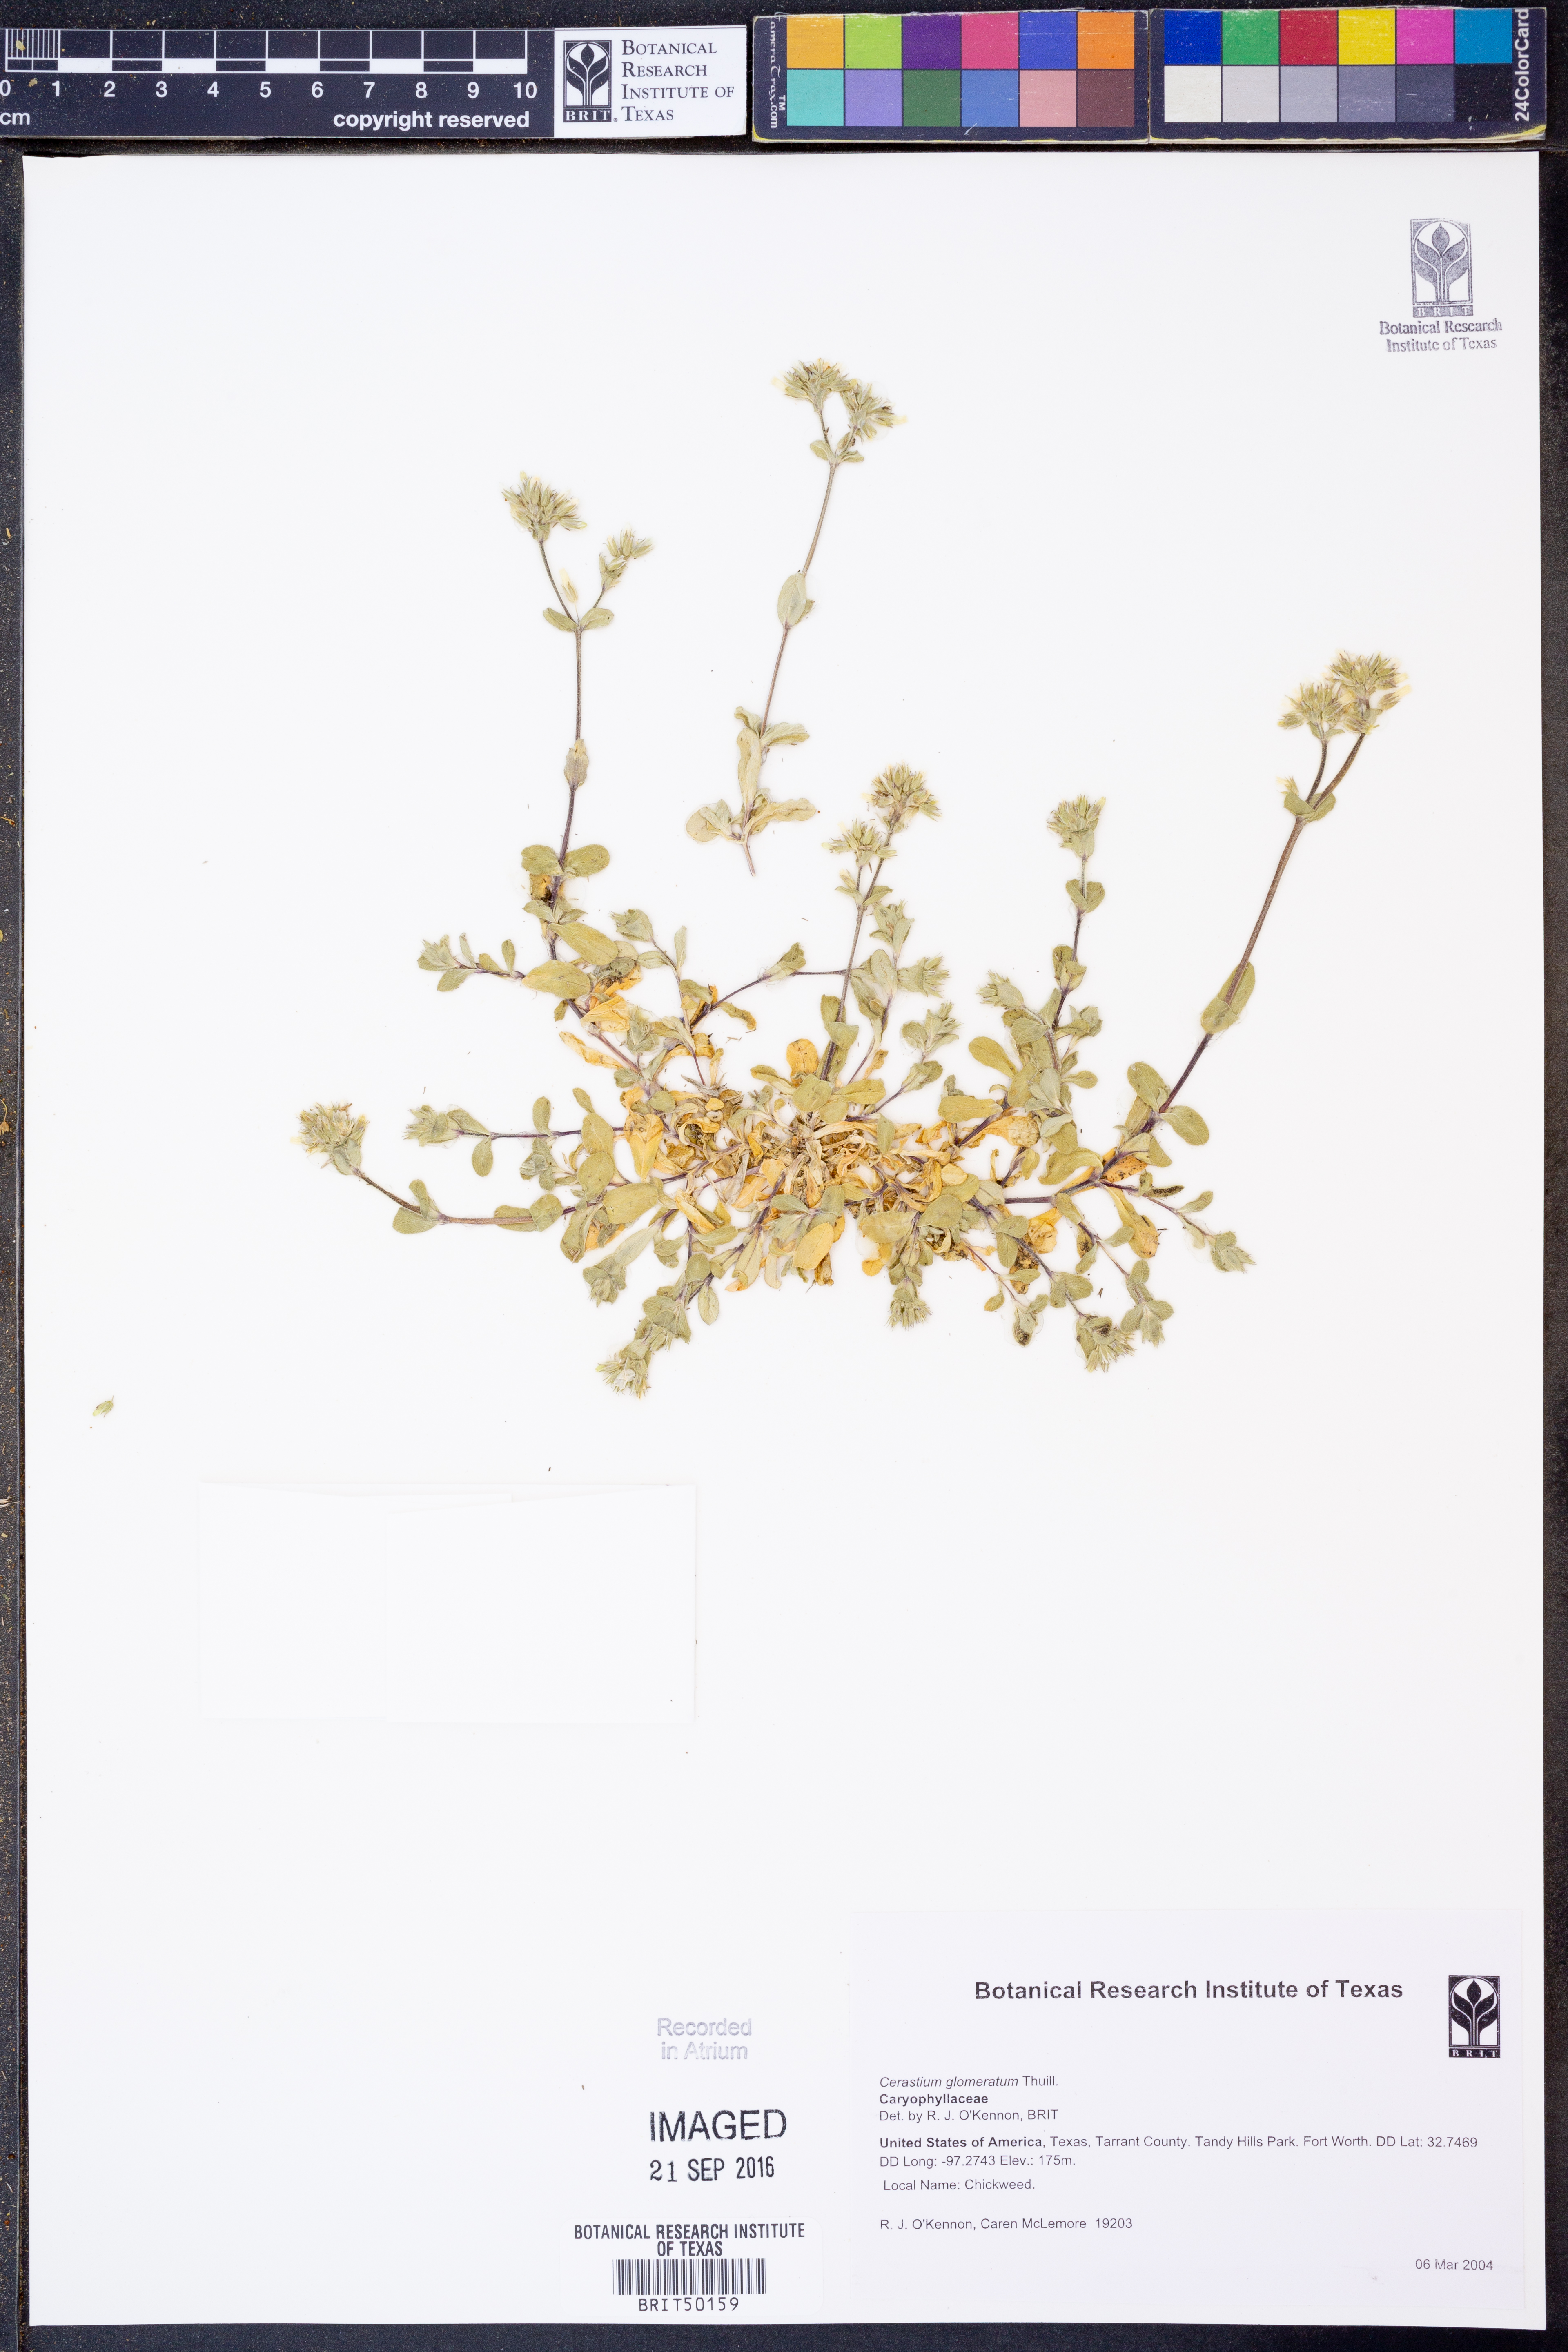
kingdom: Plantae
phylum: Tracheophyta
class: Magnoliopsida
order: Caryophyllales
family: Caryophyllaceae
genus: Cerastium
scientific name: Cerastium glomeratum
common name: Sticky chickweed
